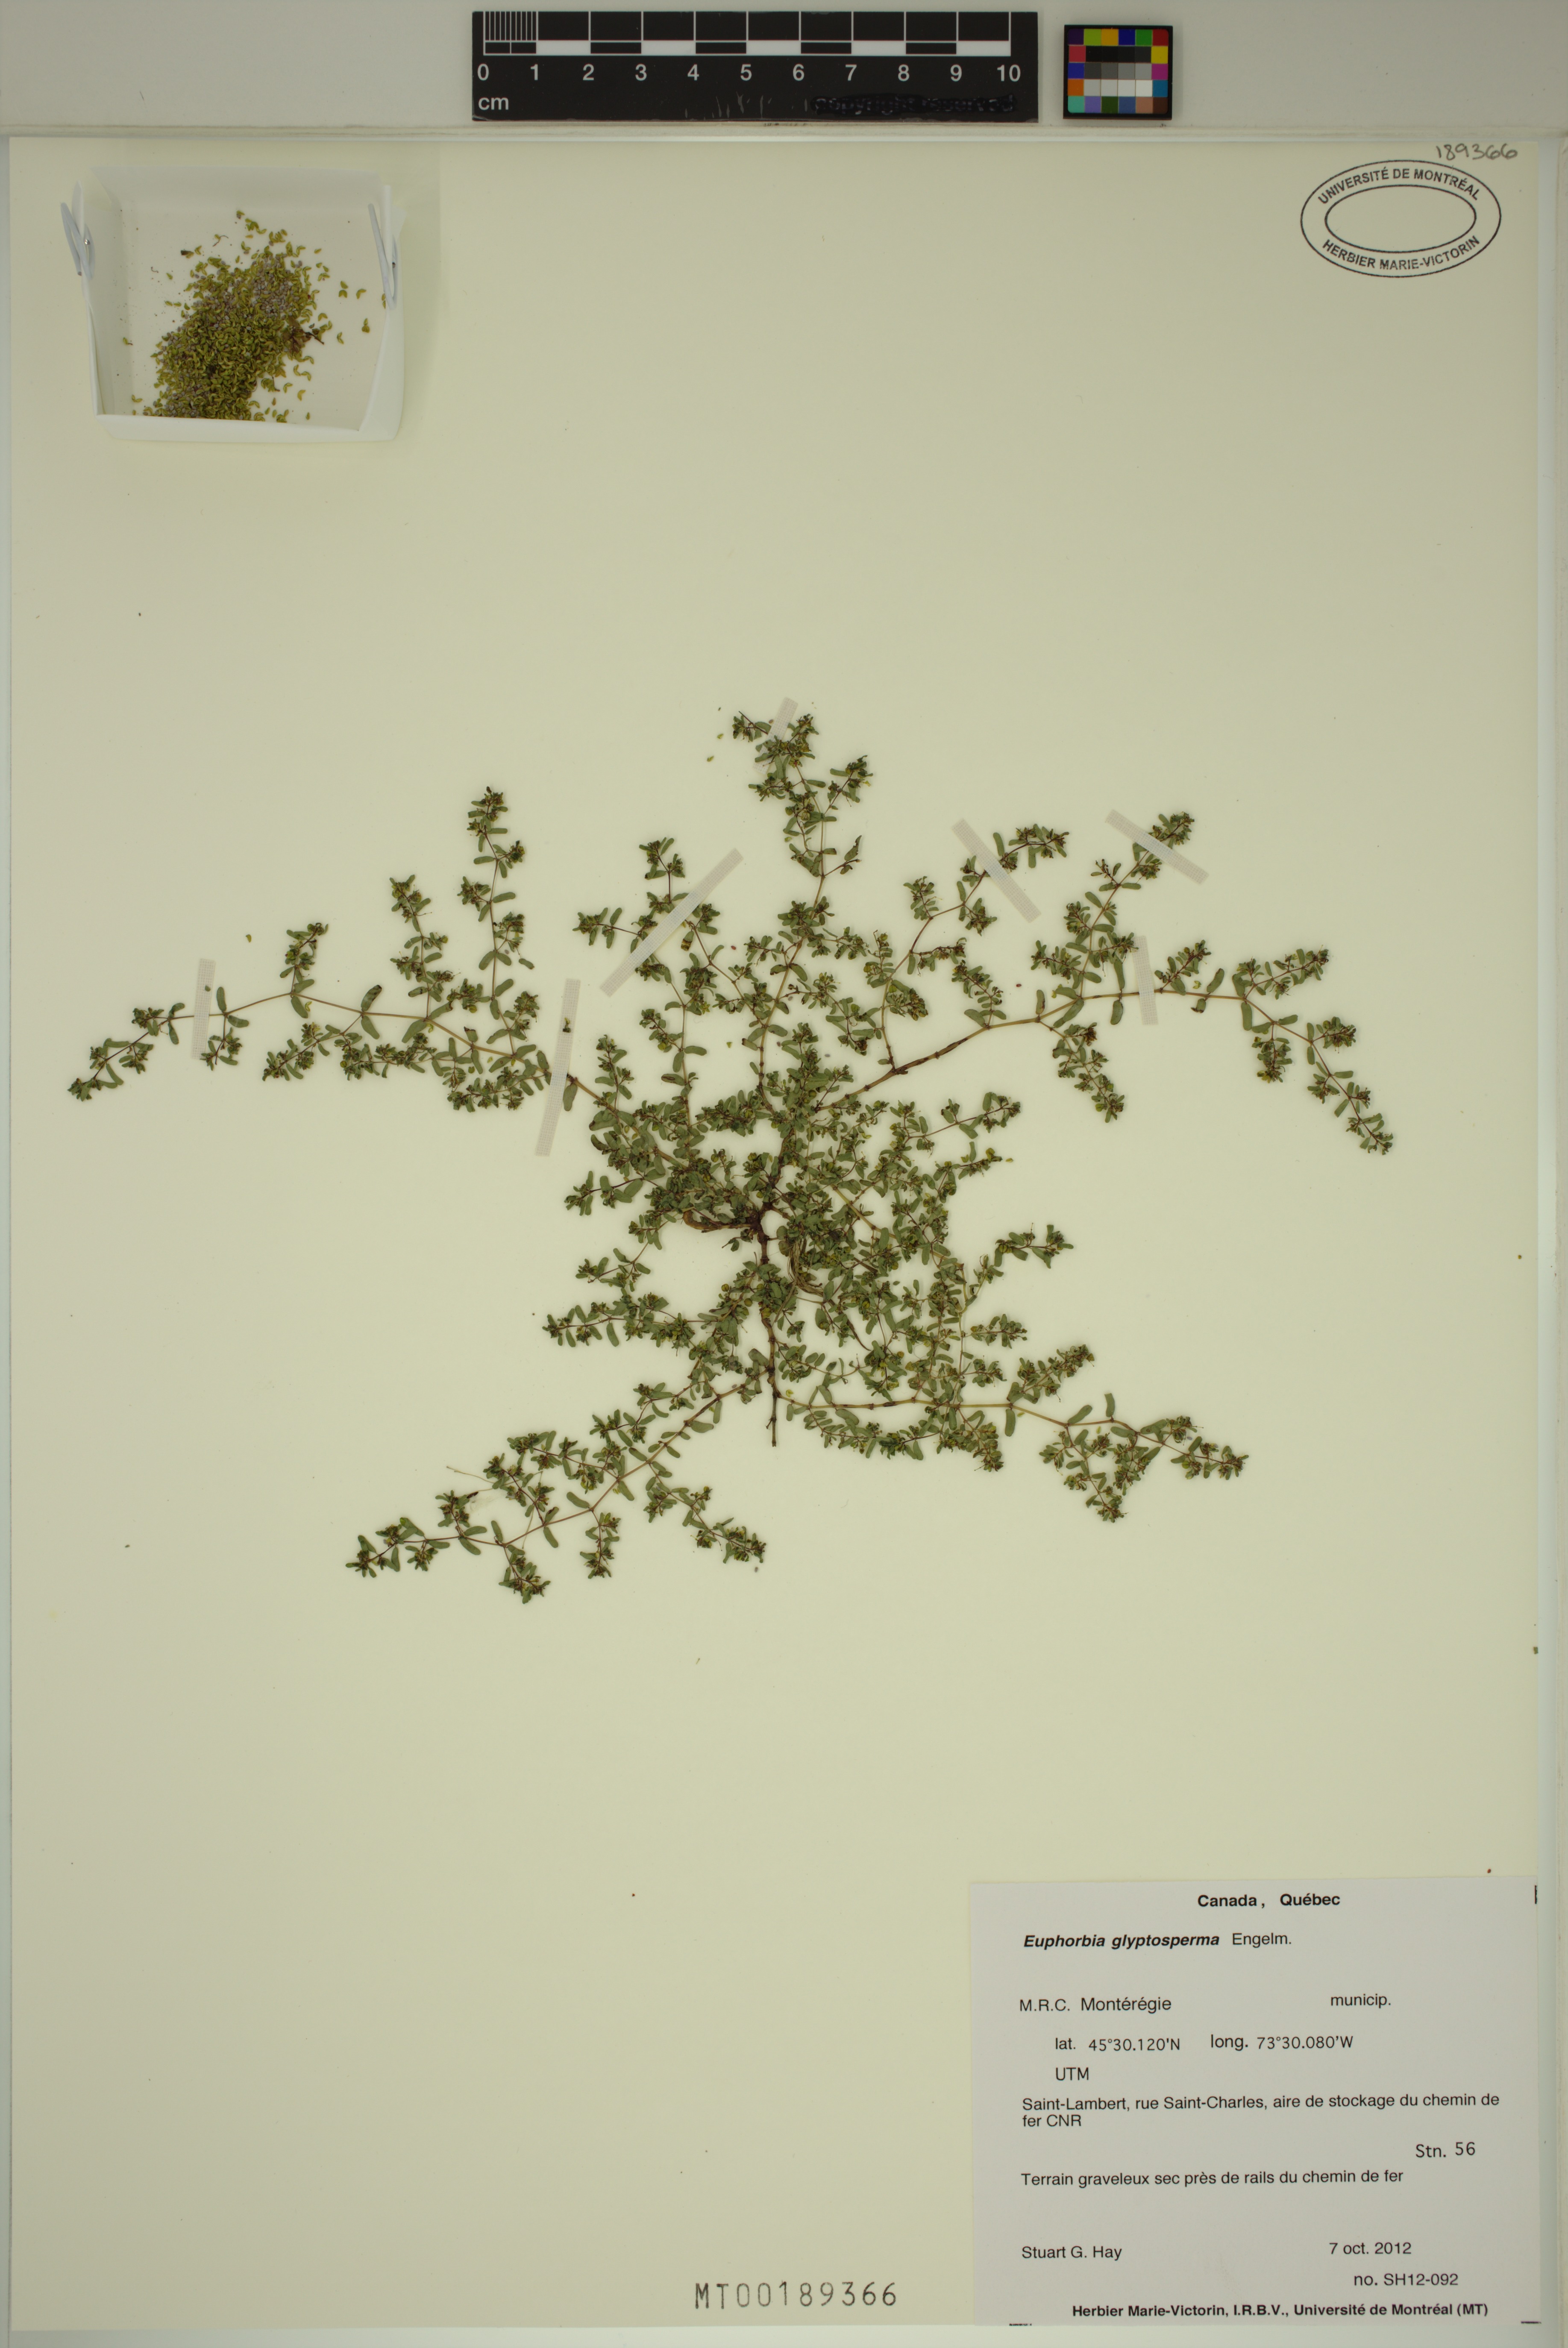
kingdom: Plantae
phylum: Tracheophyta
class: Magnoliopsida
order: Malpighiales
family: Euphorbiaceae
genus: Euphorbia
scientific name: Euphorbia glyptosperma
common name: Corrugate-seeded spurge
